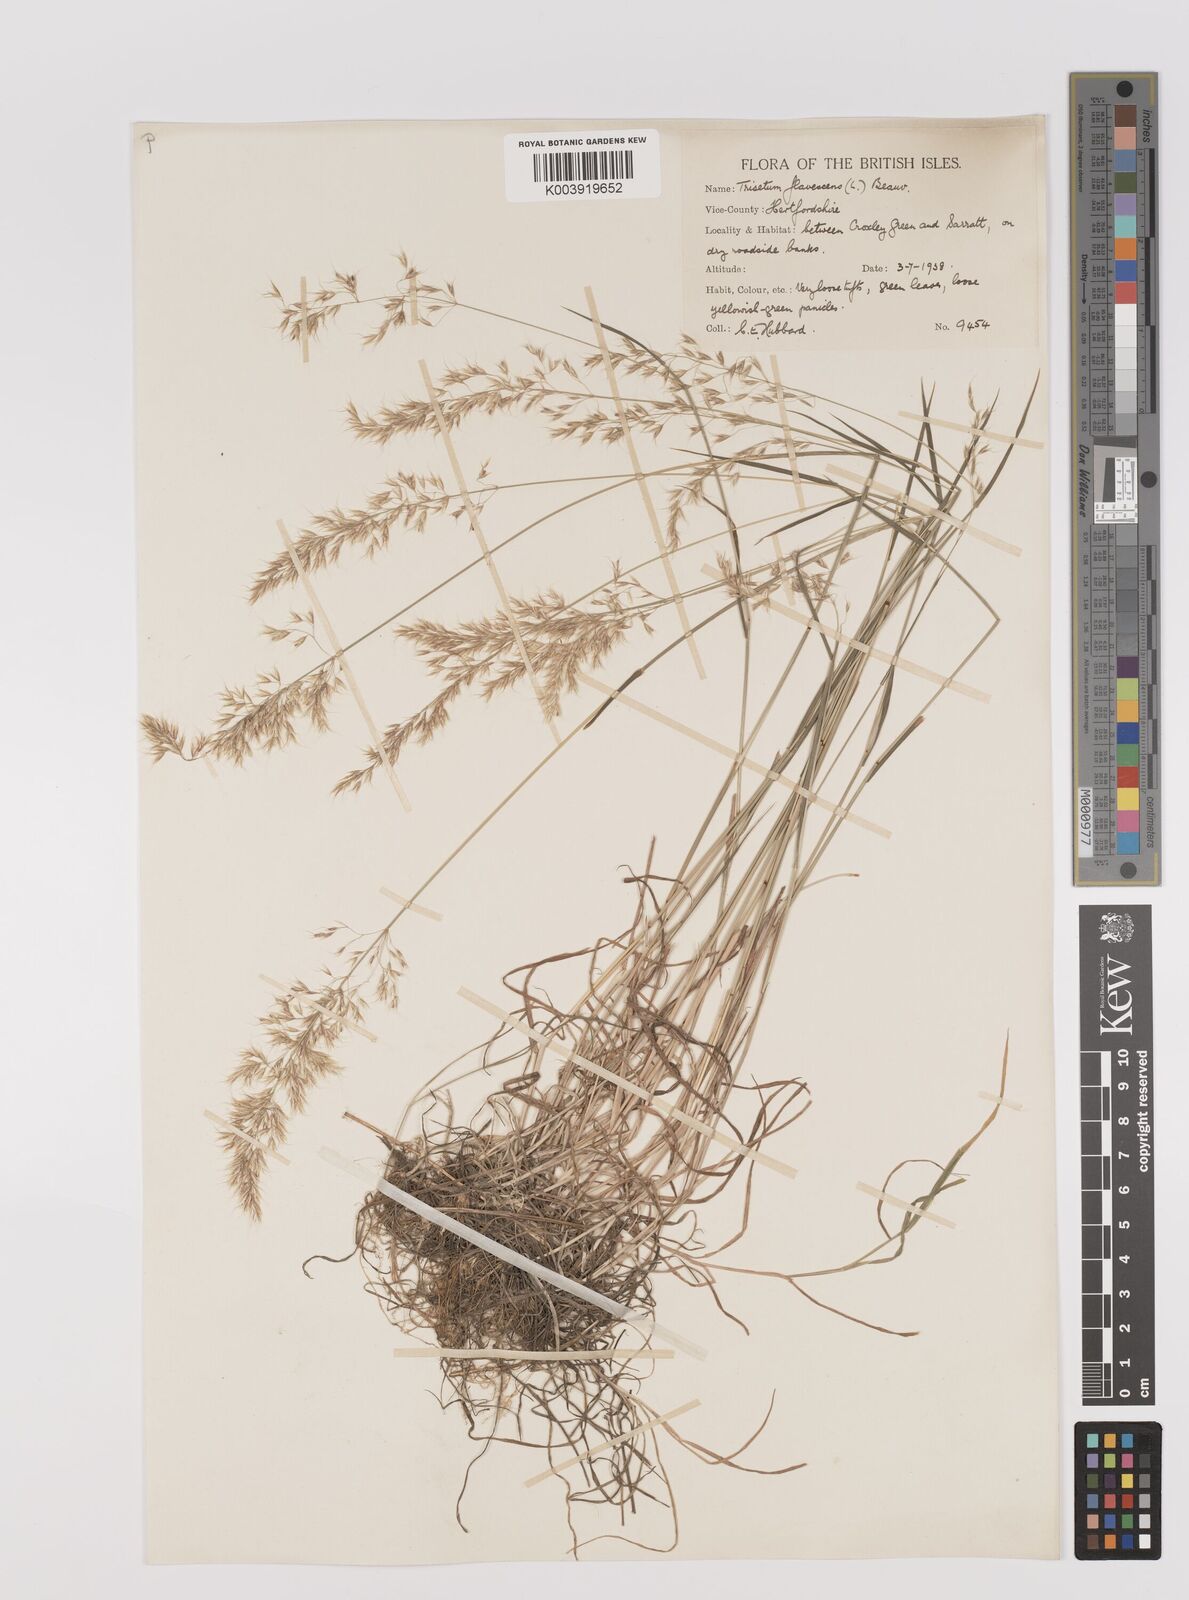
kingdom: Plantae
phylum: Tracheophyta
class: Liliopsida
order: Poales
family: Poaceae
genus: Trisetum
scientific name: Trisetum flavescens
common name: Yellow oat-grass
